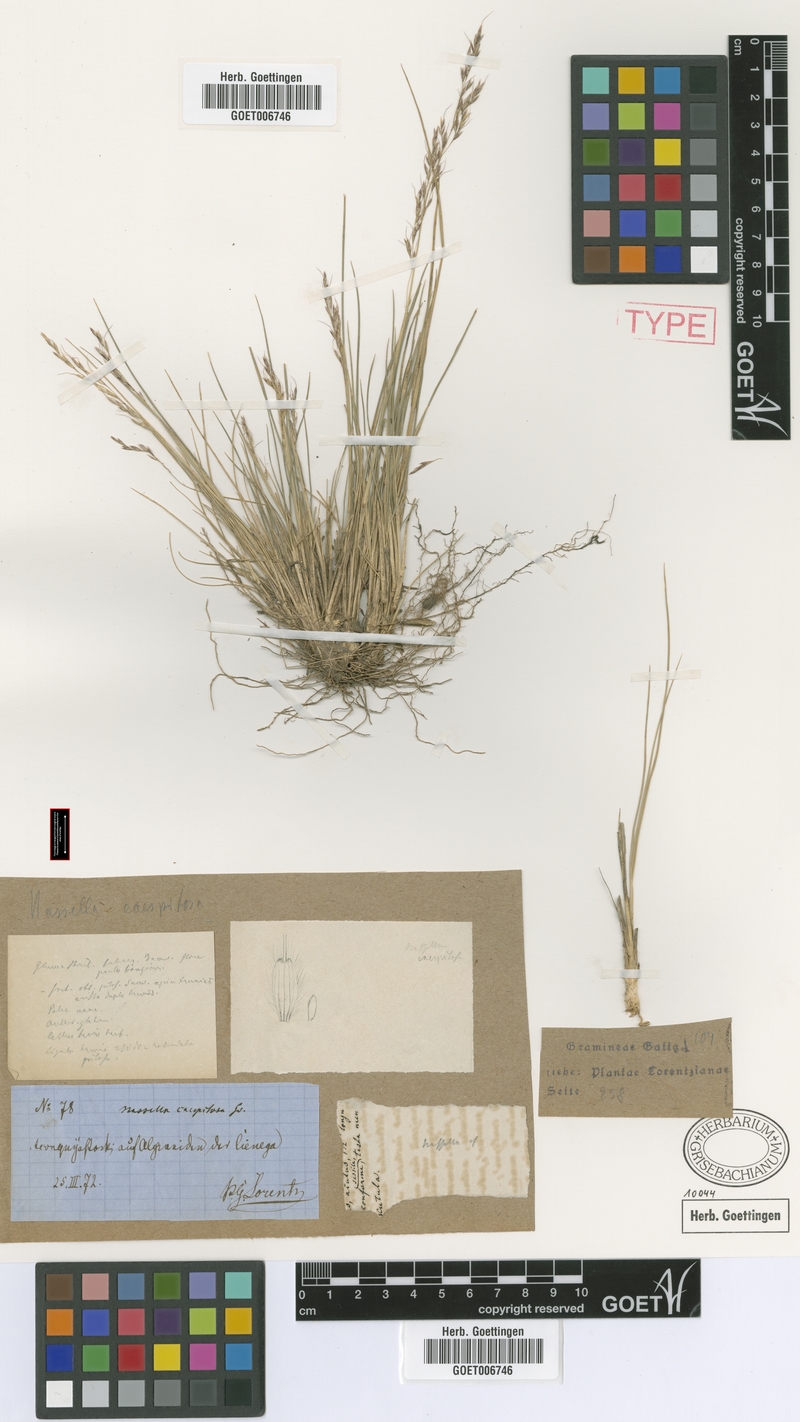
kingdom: Plantae
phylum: Tracheophyta
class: Liliopsida
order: Poales
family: Poaceae
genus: Nassella
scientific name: Nassella caespitosa
